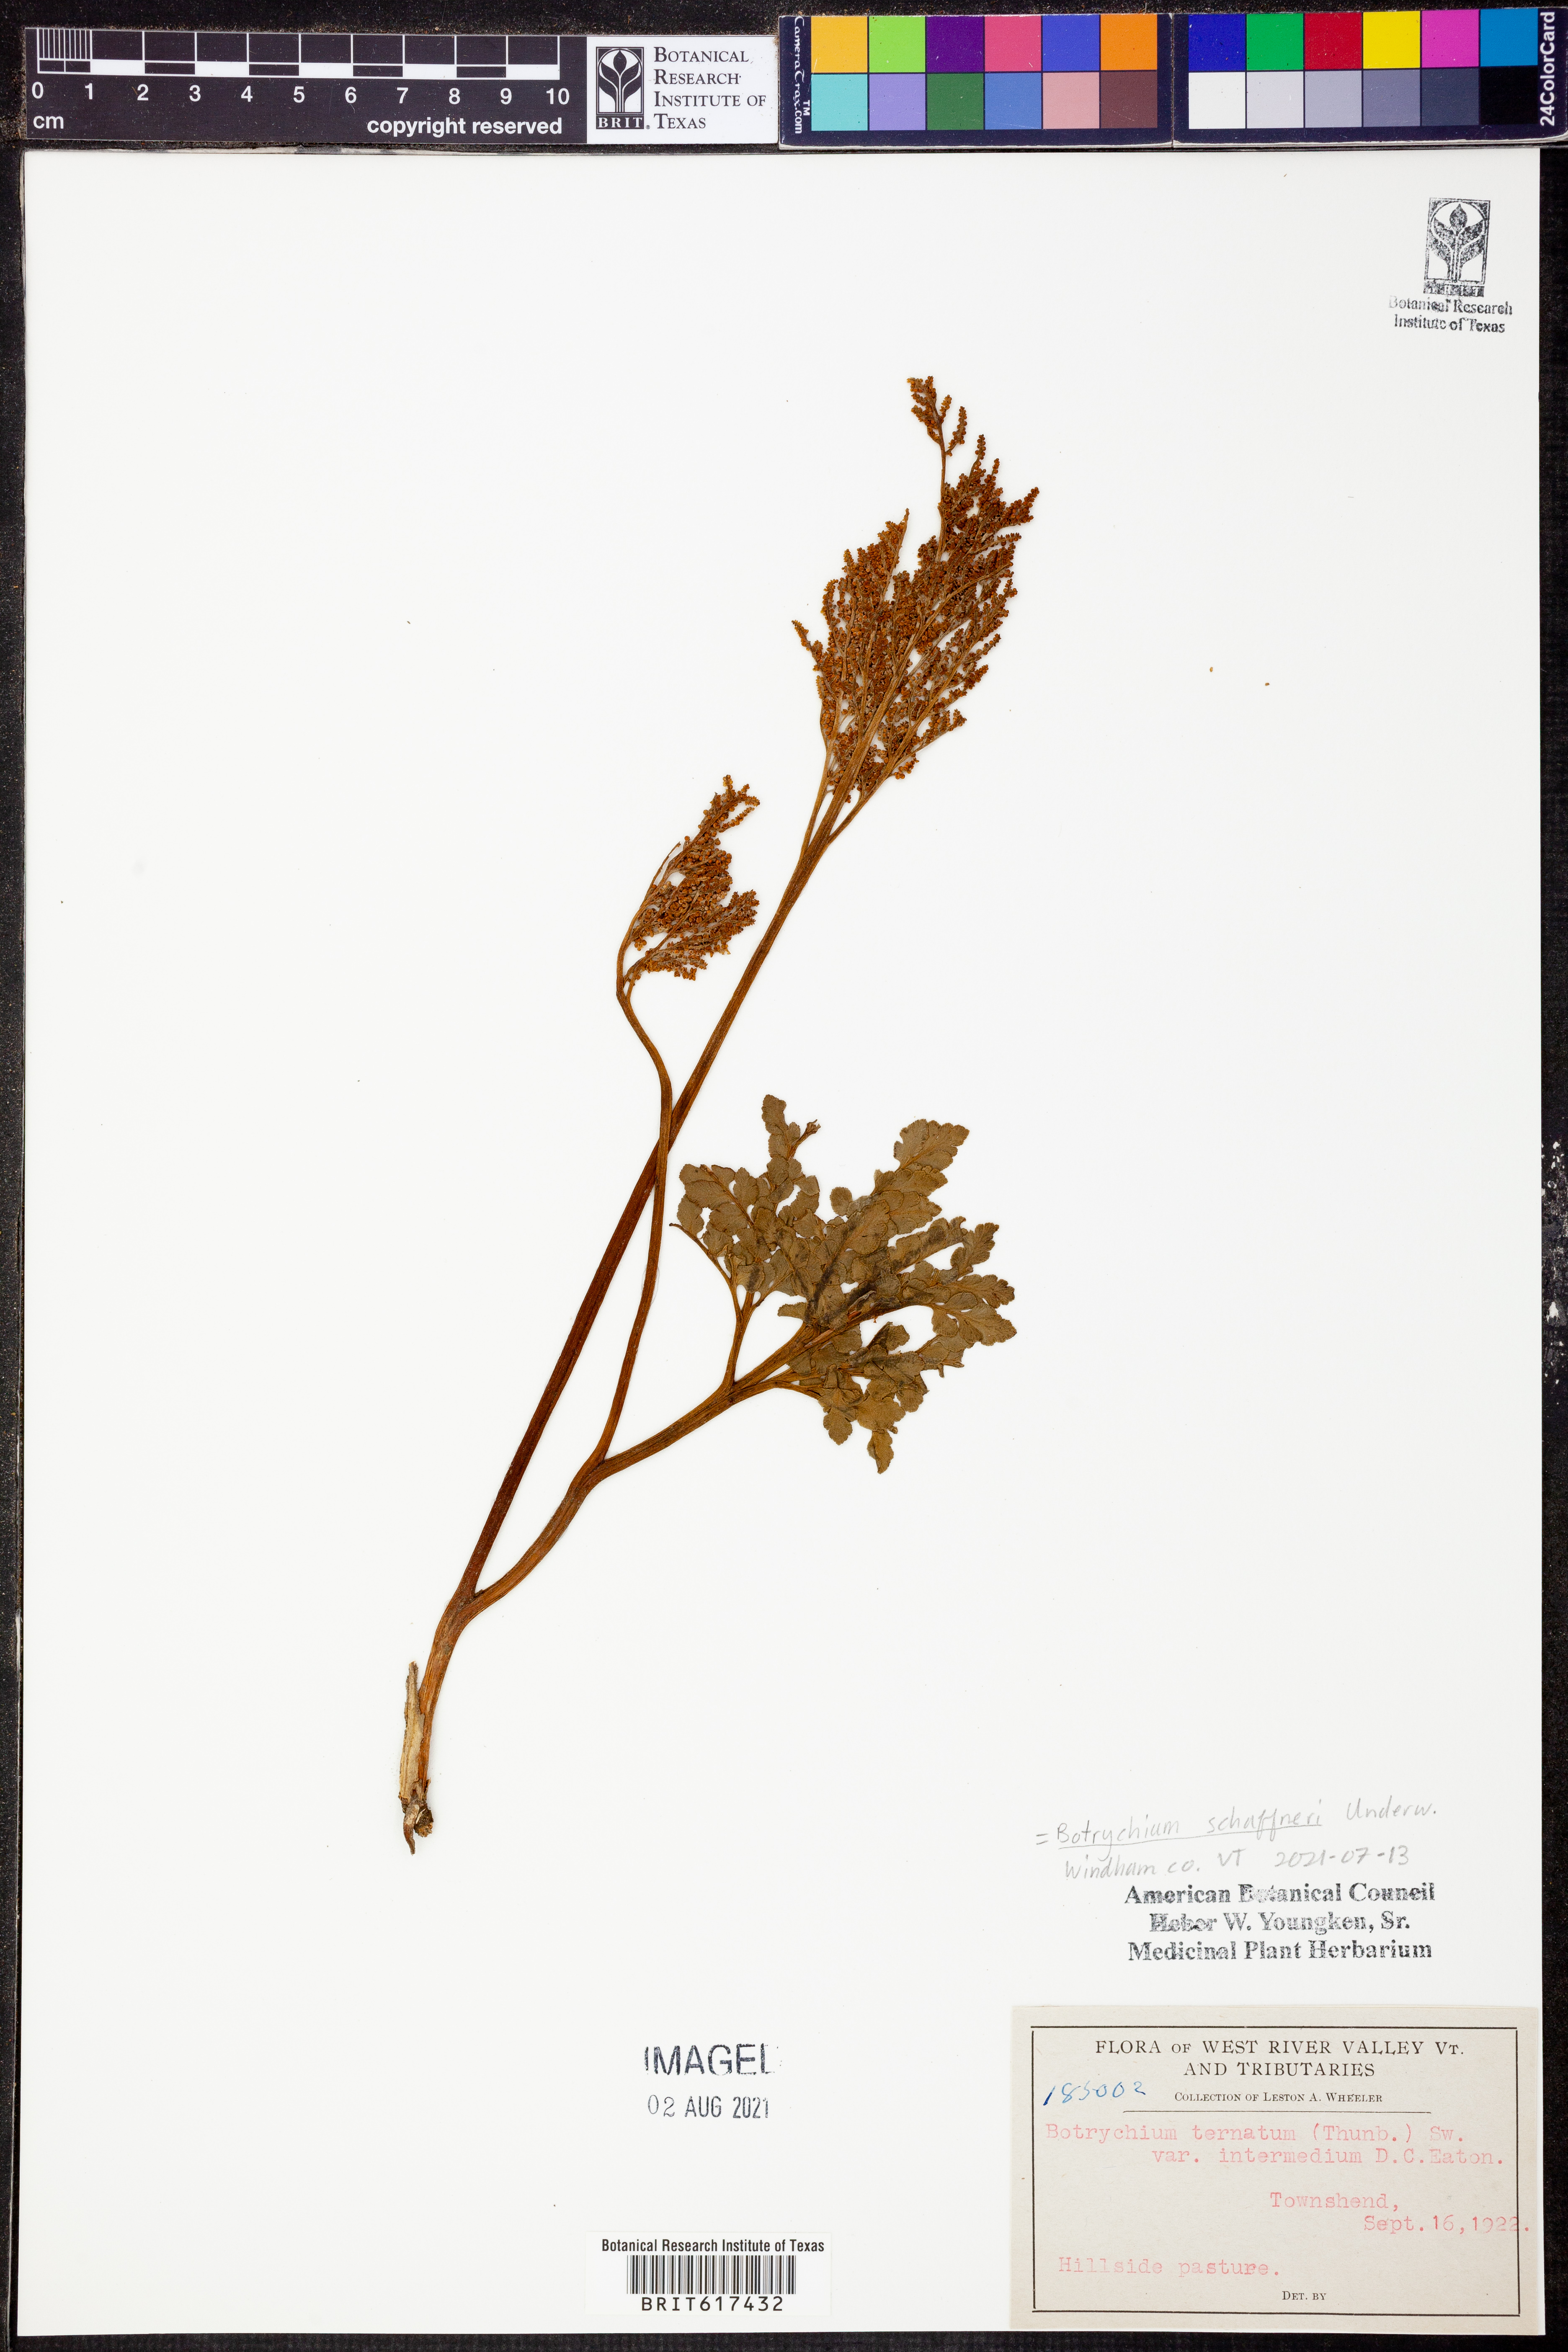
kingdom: Plantae
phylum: Tracheophyta
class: Polypodiopsida
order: Ophioglossales
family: Ophioglossaceae
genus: Sceptridium
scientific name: Sceptridium schaffneri
